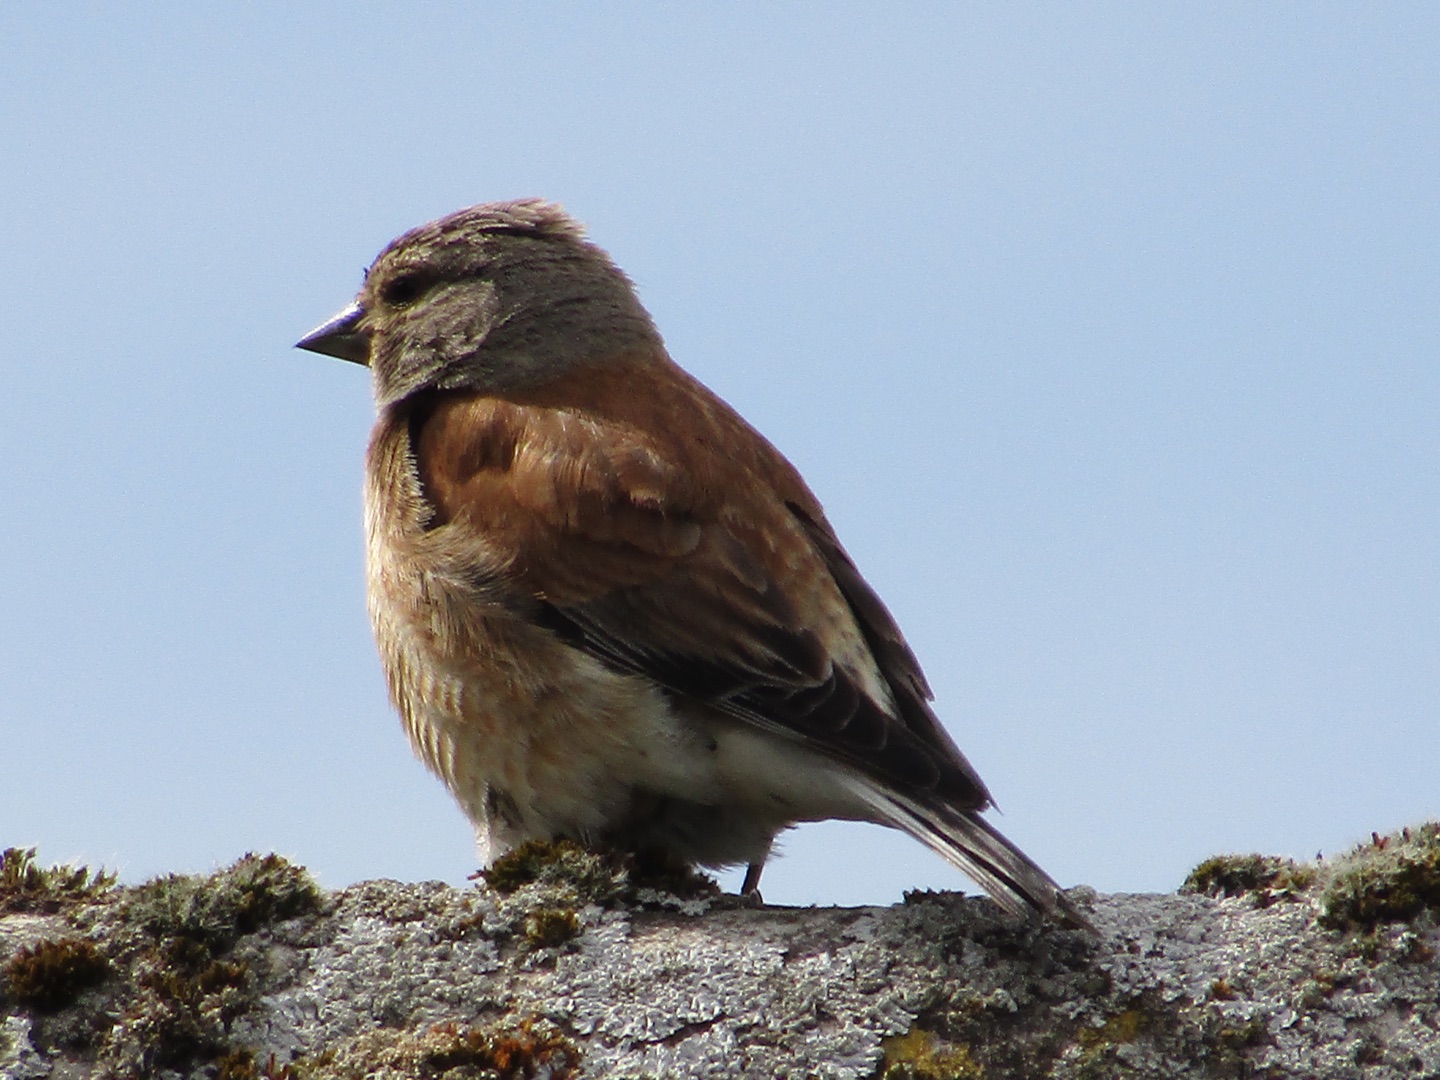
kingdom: Animalia
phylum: Chordata
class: Aves
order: Passeriformes
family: Fringillidae
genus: Linaria
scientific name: Linaria cannabina
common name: Tornirisk
